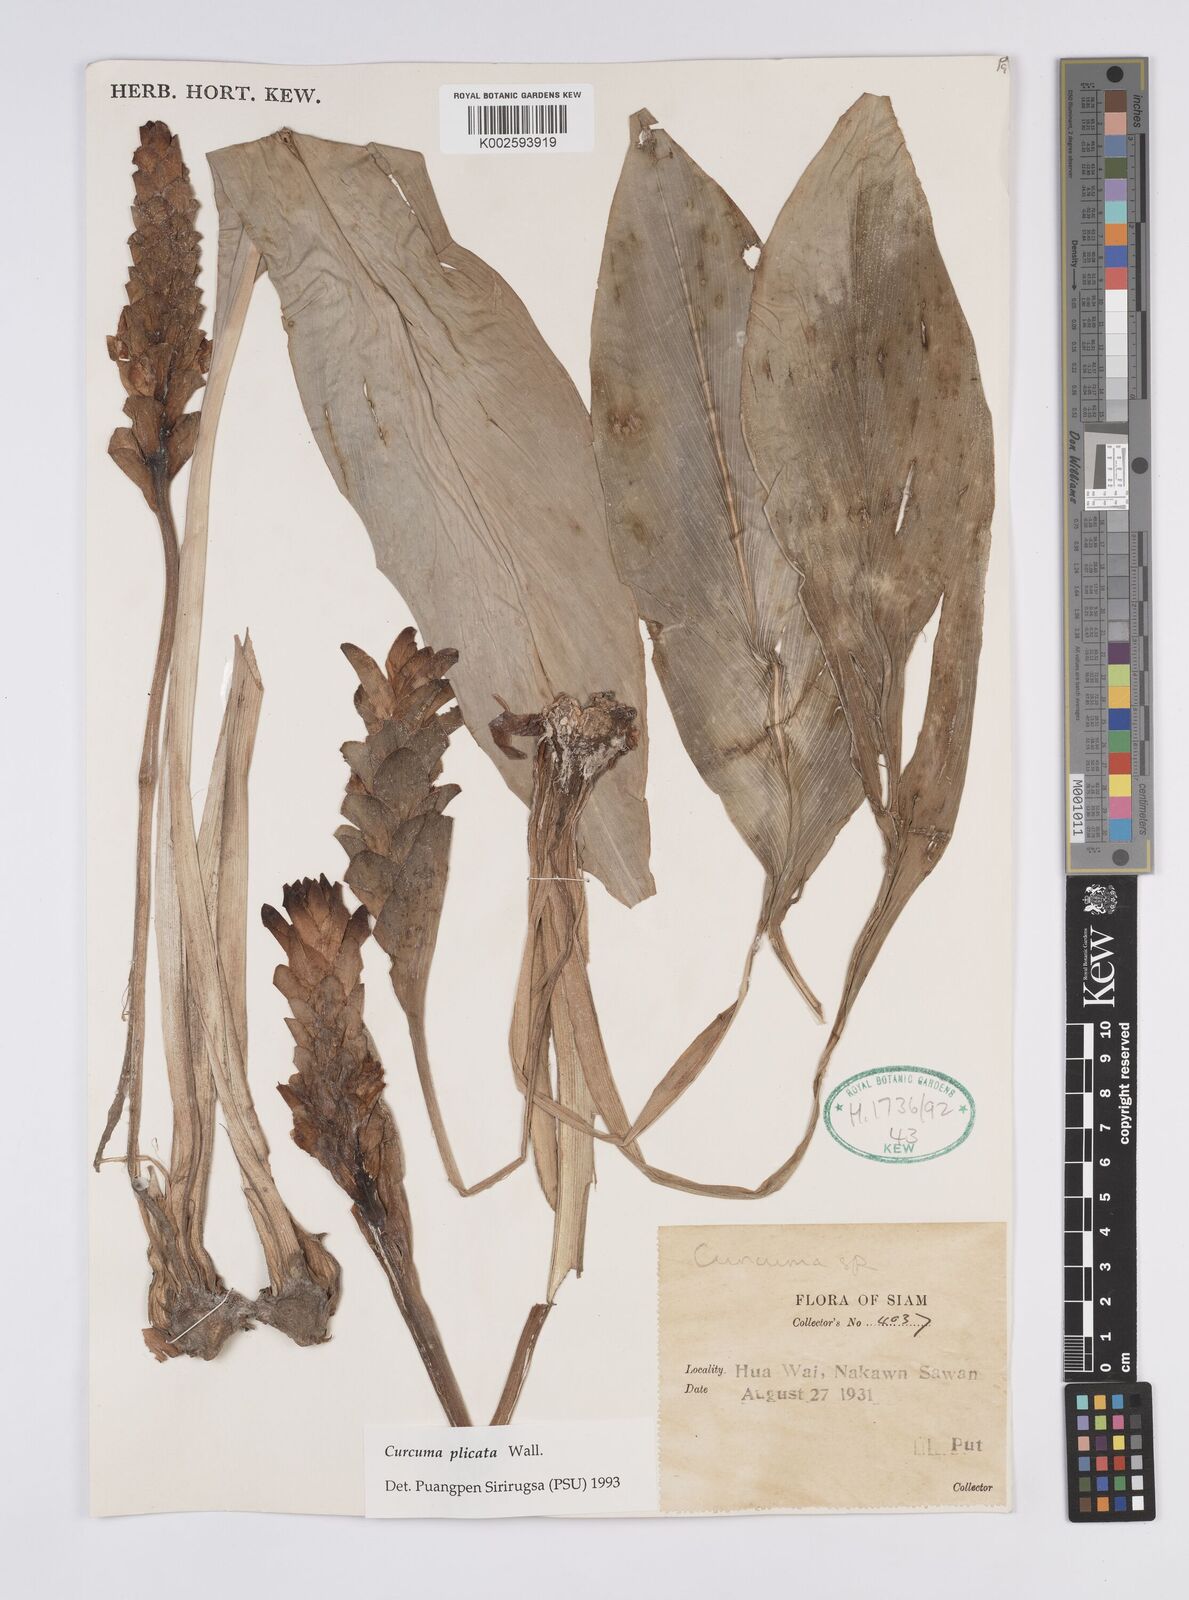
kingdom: Plantae
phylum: Tracheophyta
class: Liliopsida
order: Zingiberales
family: Zingiberaceae
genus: Curcuma
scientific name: Curcuma plicata
